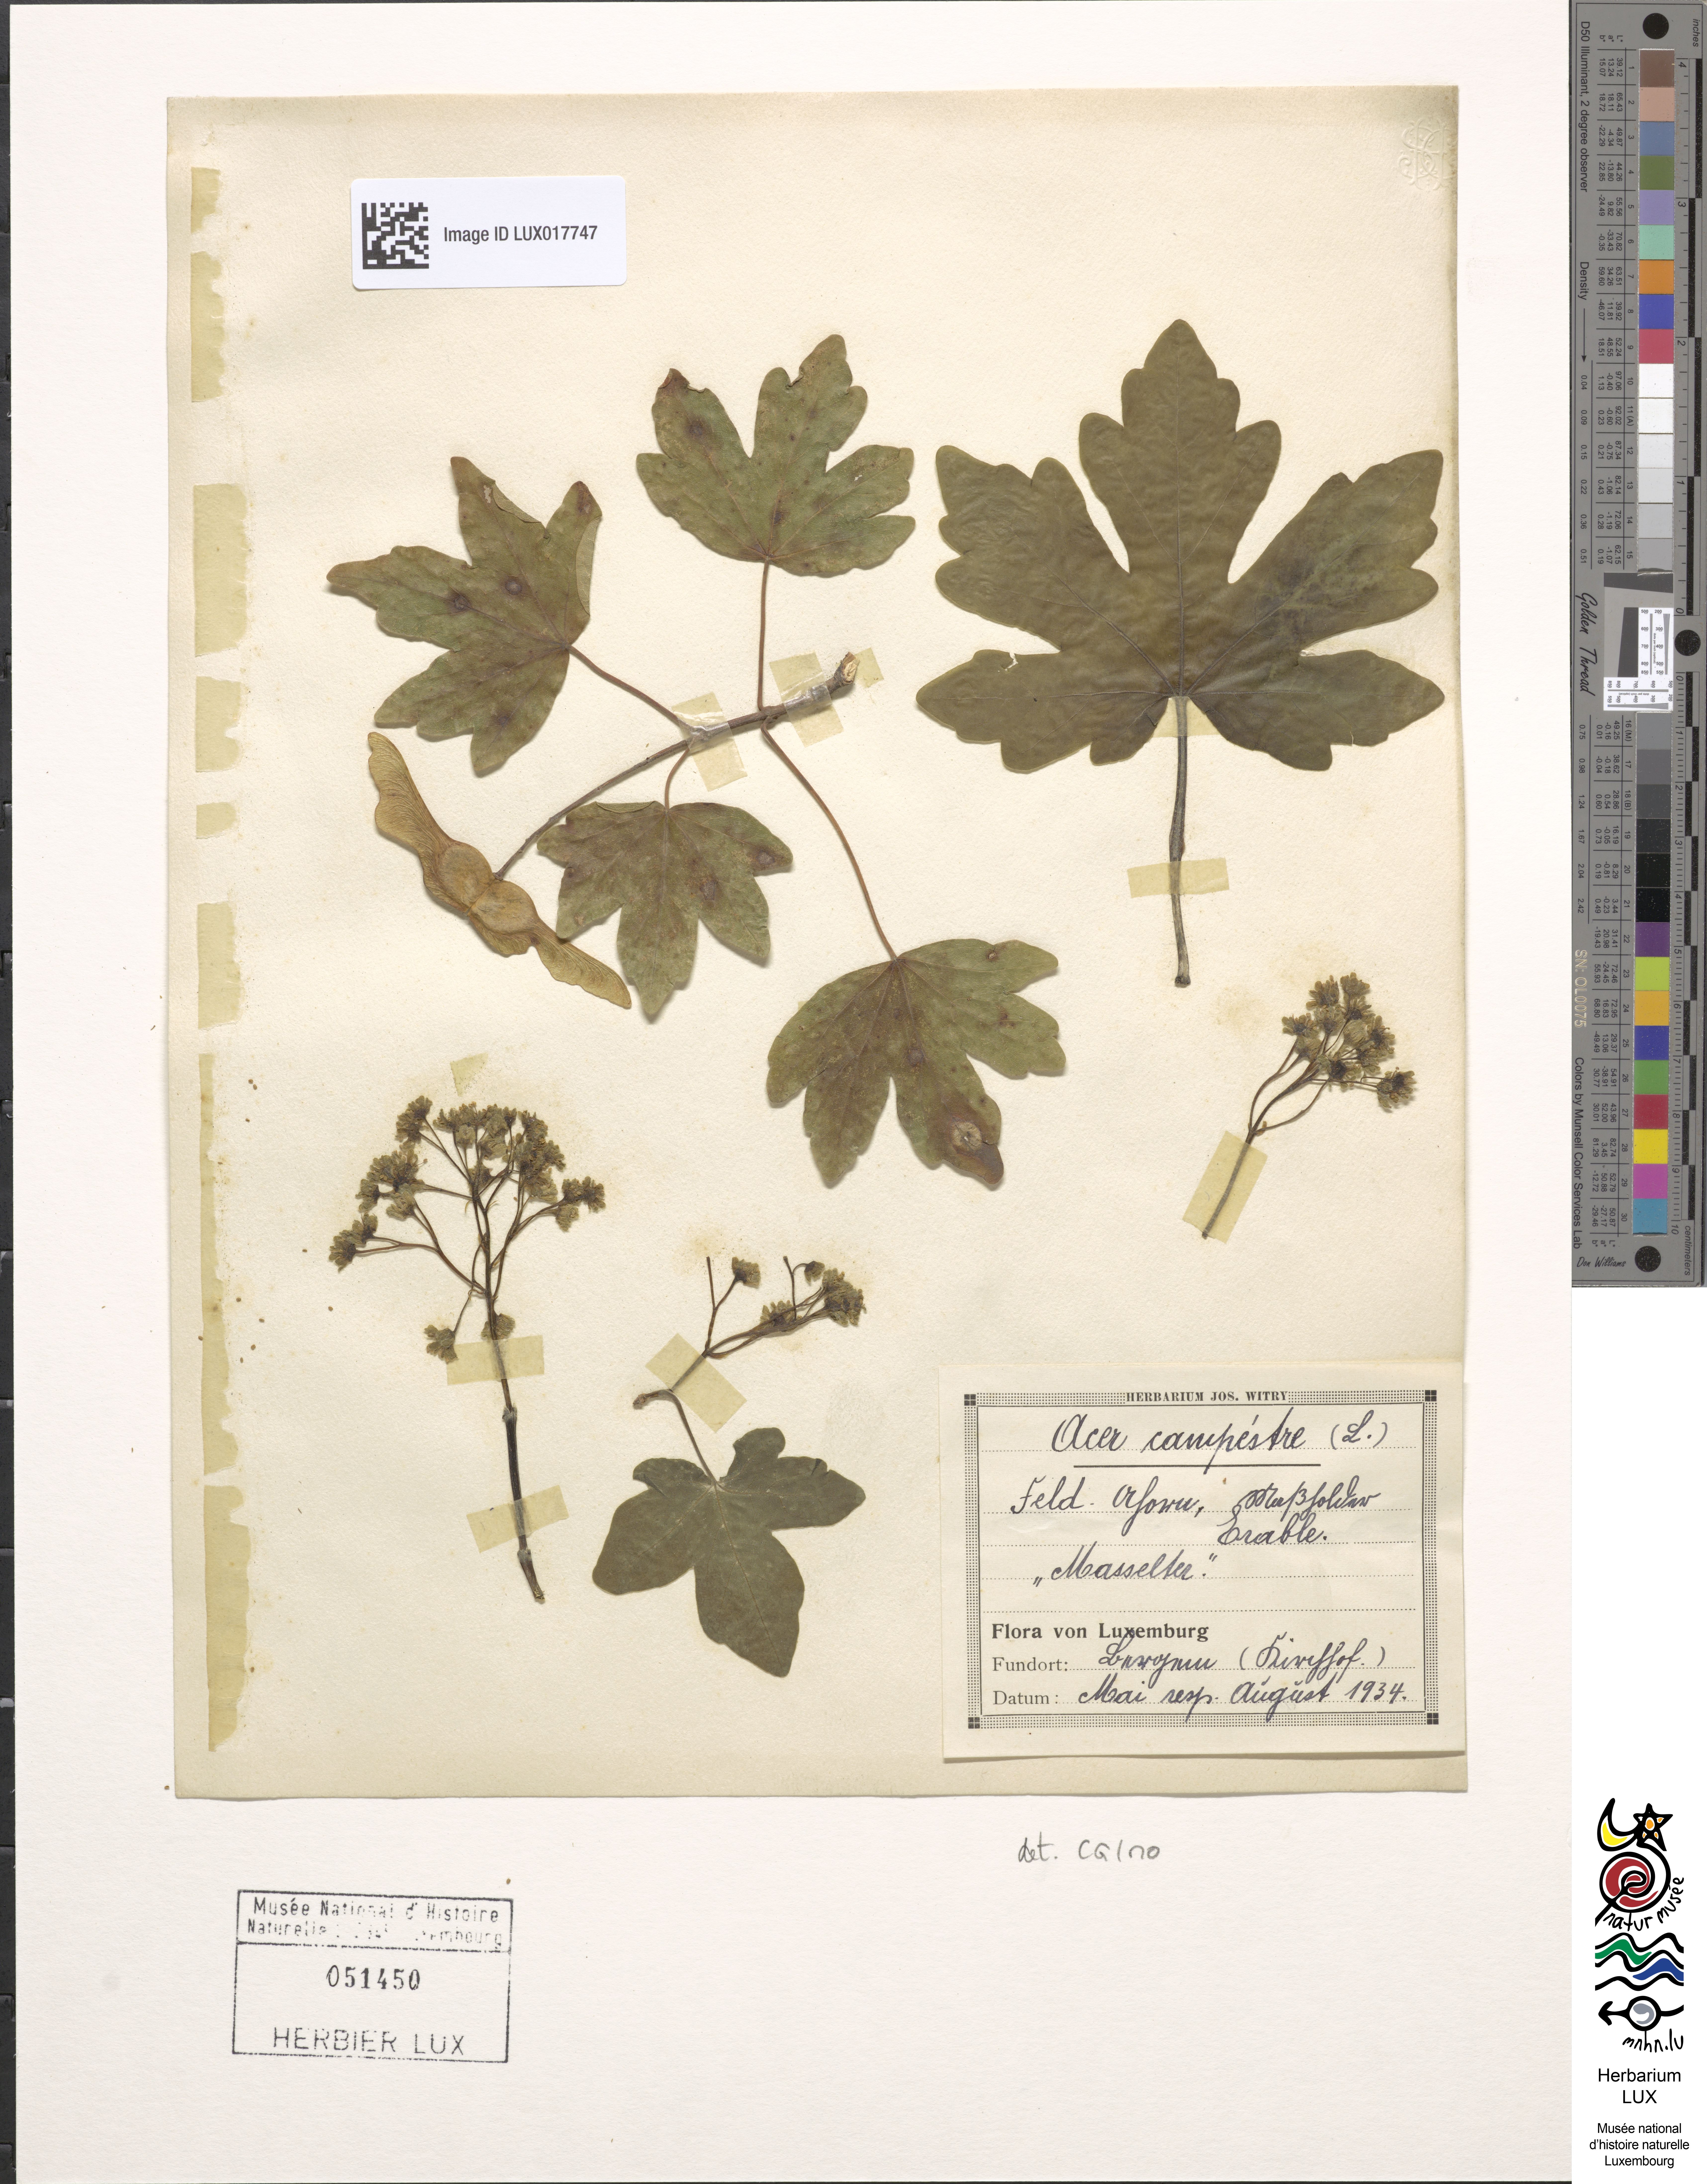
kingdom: Plantae
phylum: Tracheophyta
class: Magnoliopsida
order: Sapindales
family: Sapindaceae
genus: Acer
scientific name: Acer campestre
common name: Field maple
